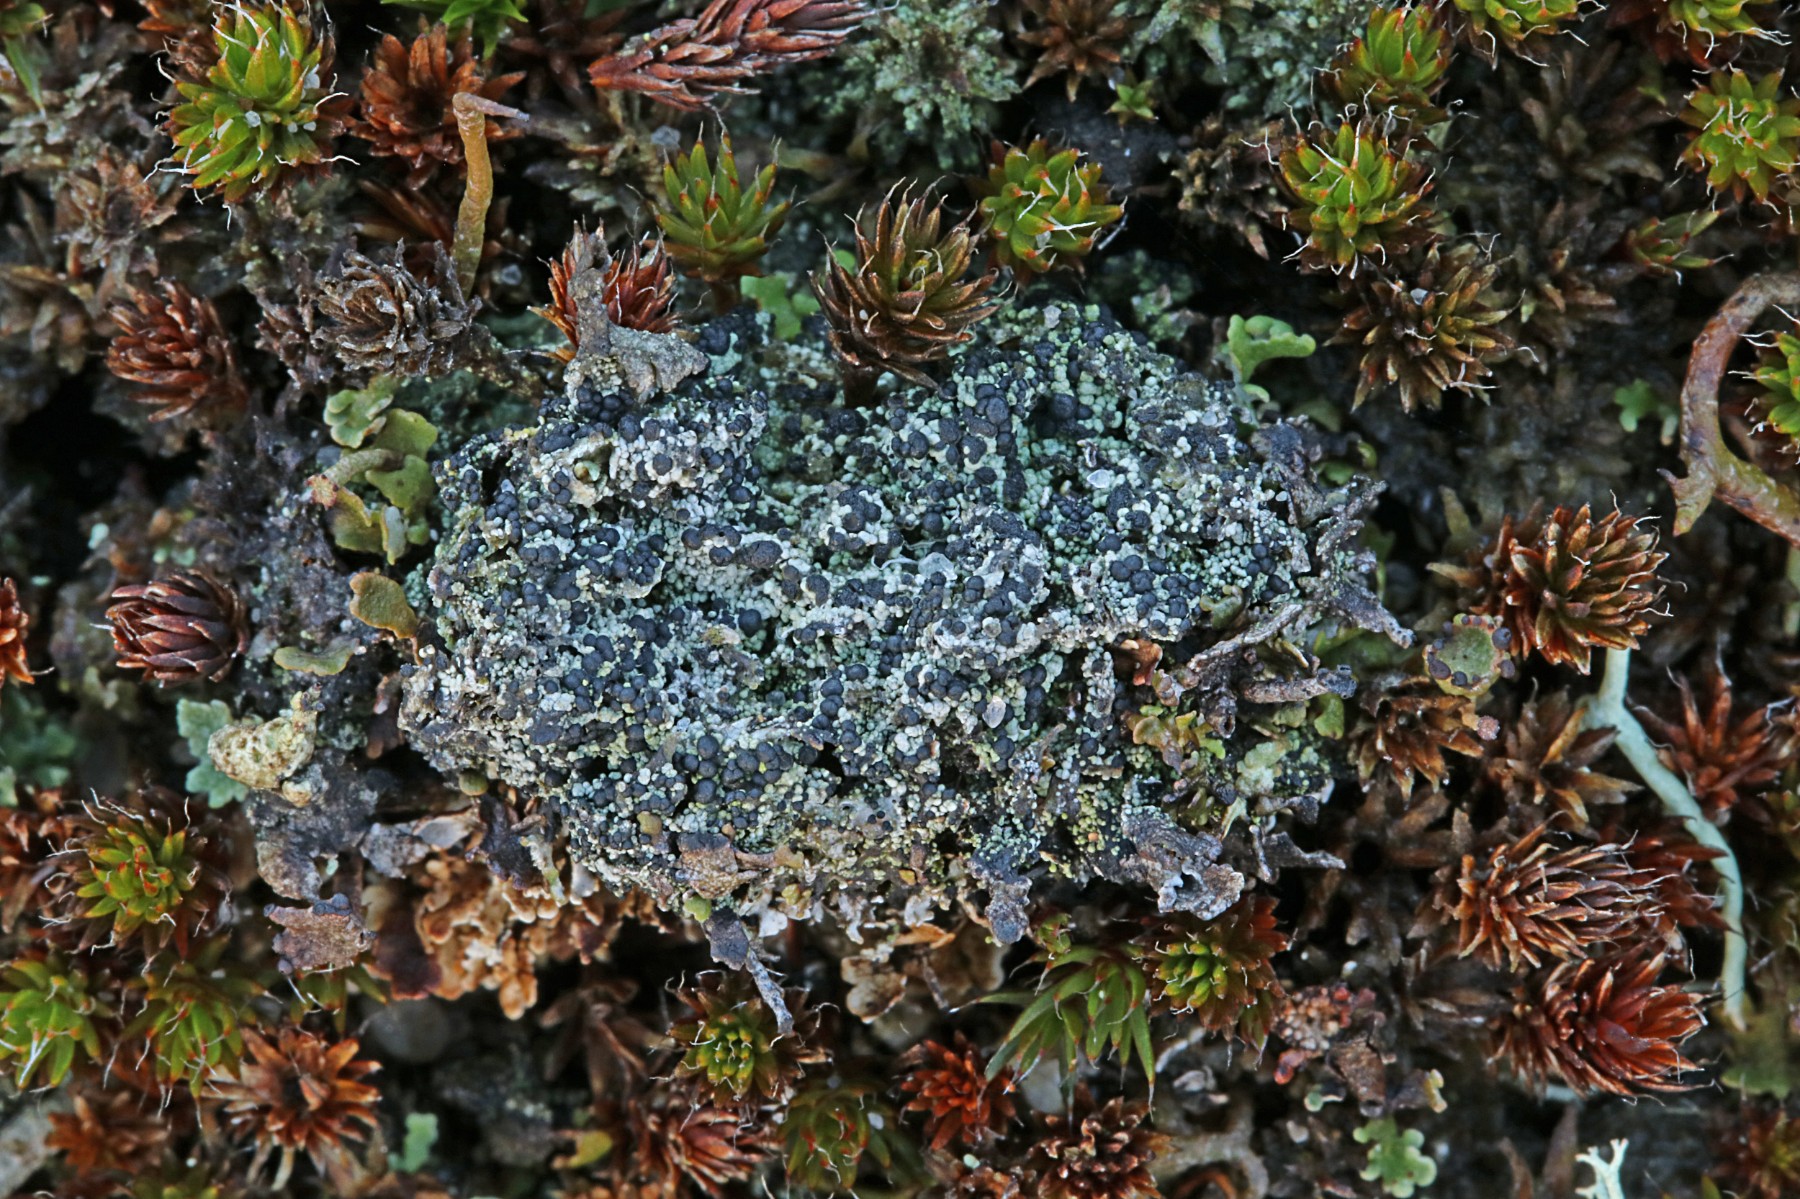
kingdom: Fungi
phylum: Ascomycota
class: Lecanoromycetes
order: Lecanorales
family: Byssolomataceae
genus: Micarea
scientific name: Micarea lignaria
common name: tørve-knaplav
